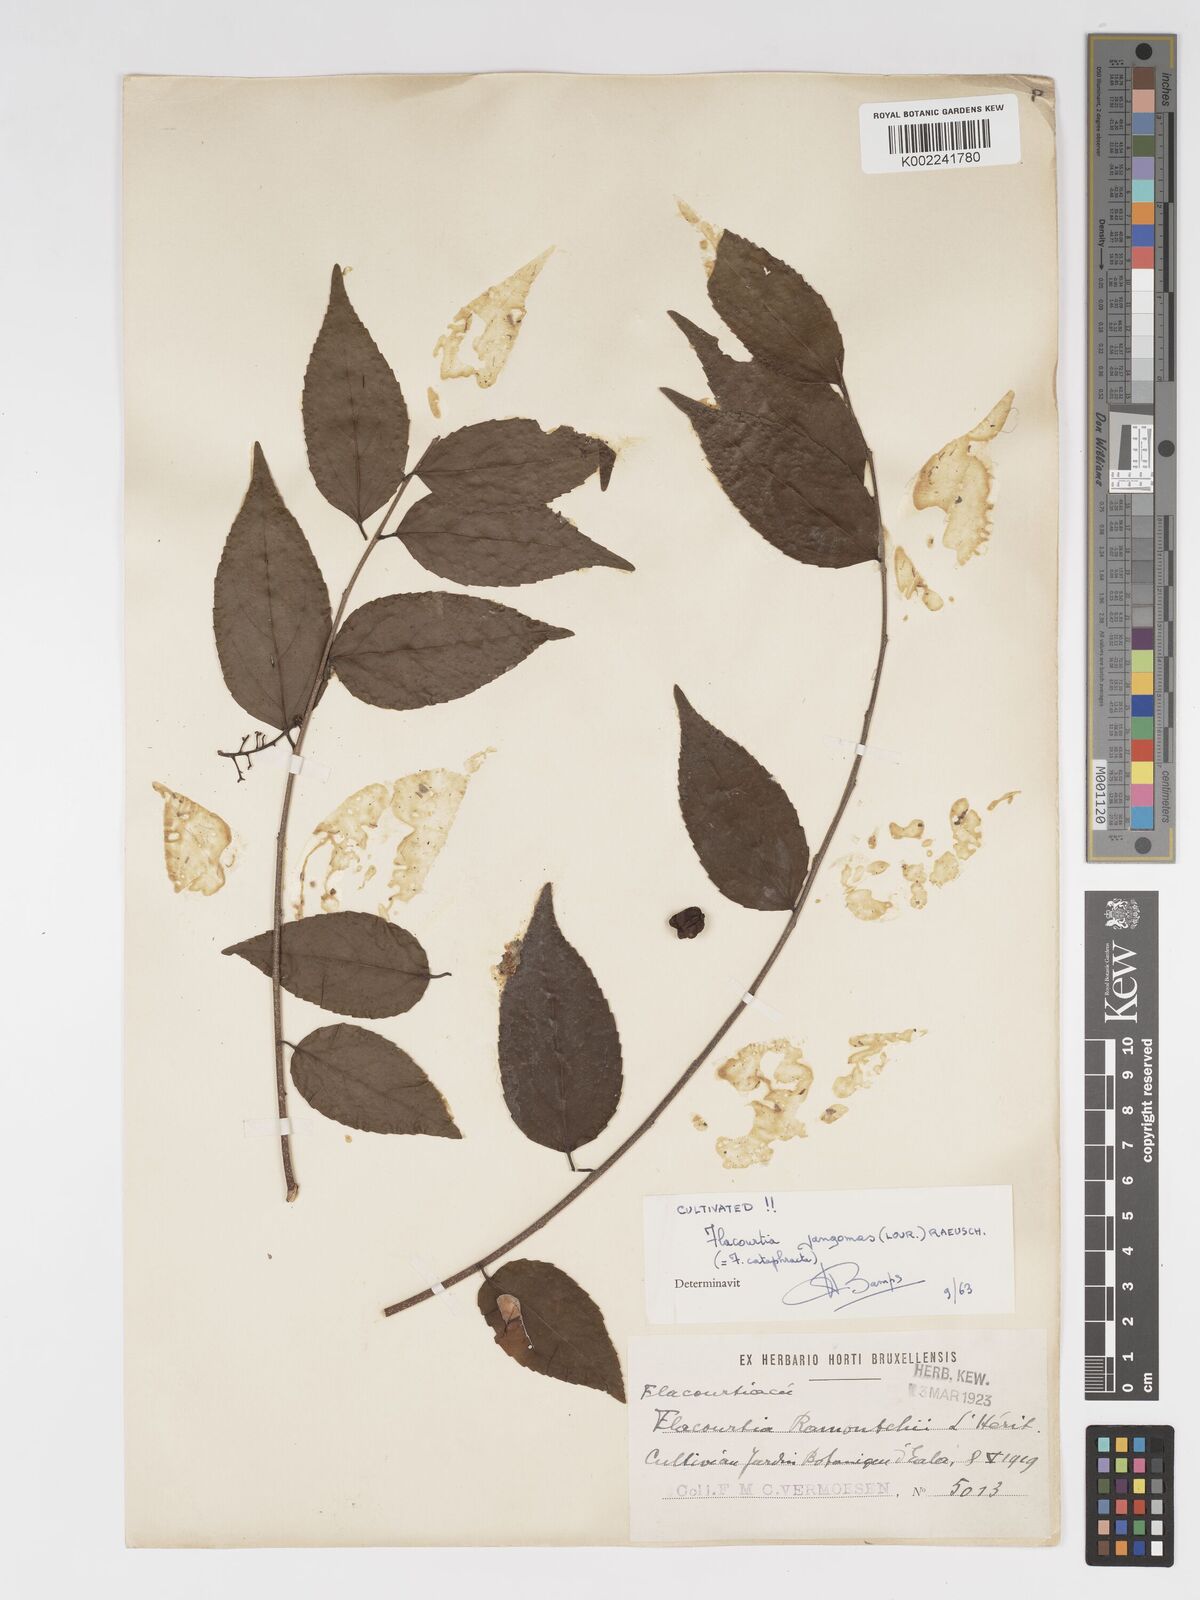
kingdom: Plantae
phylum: Tracheophyta
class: Magnoliopsida
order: Malpighiales
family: Salicaceae
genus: Flacourtia
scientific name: Flacourtia inermis
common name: Plum-of-martinique
